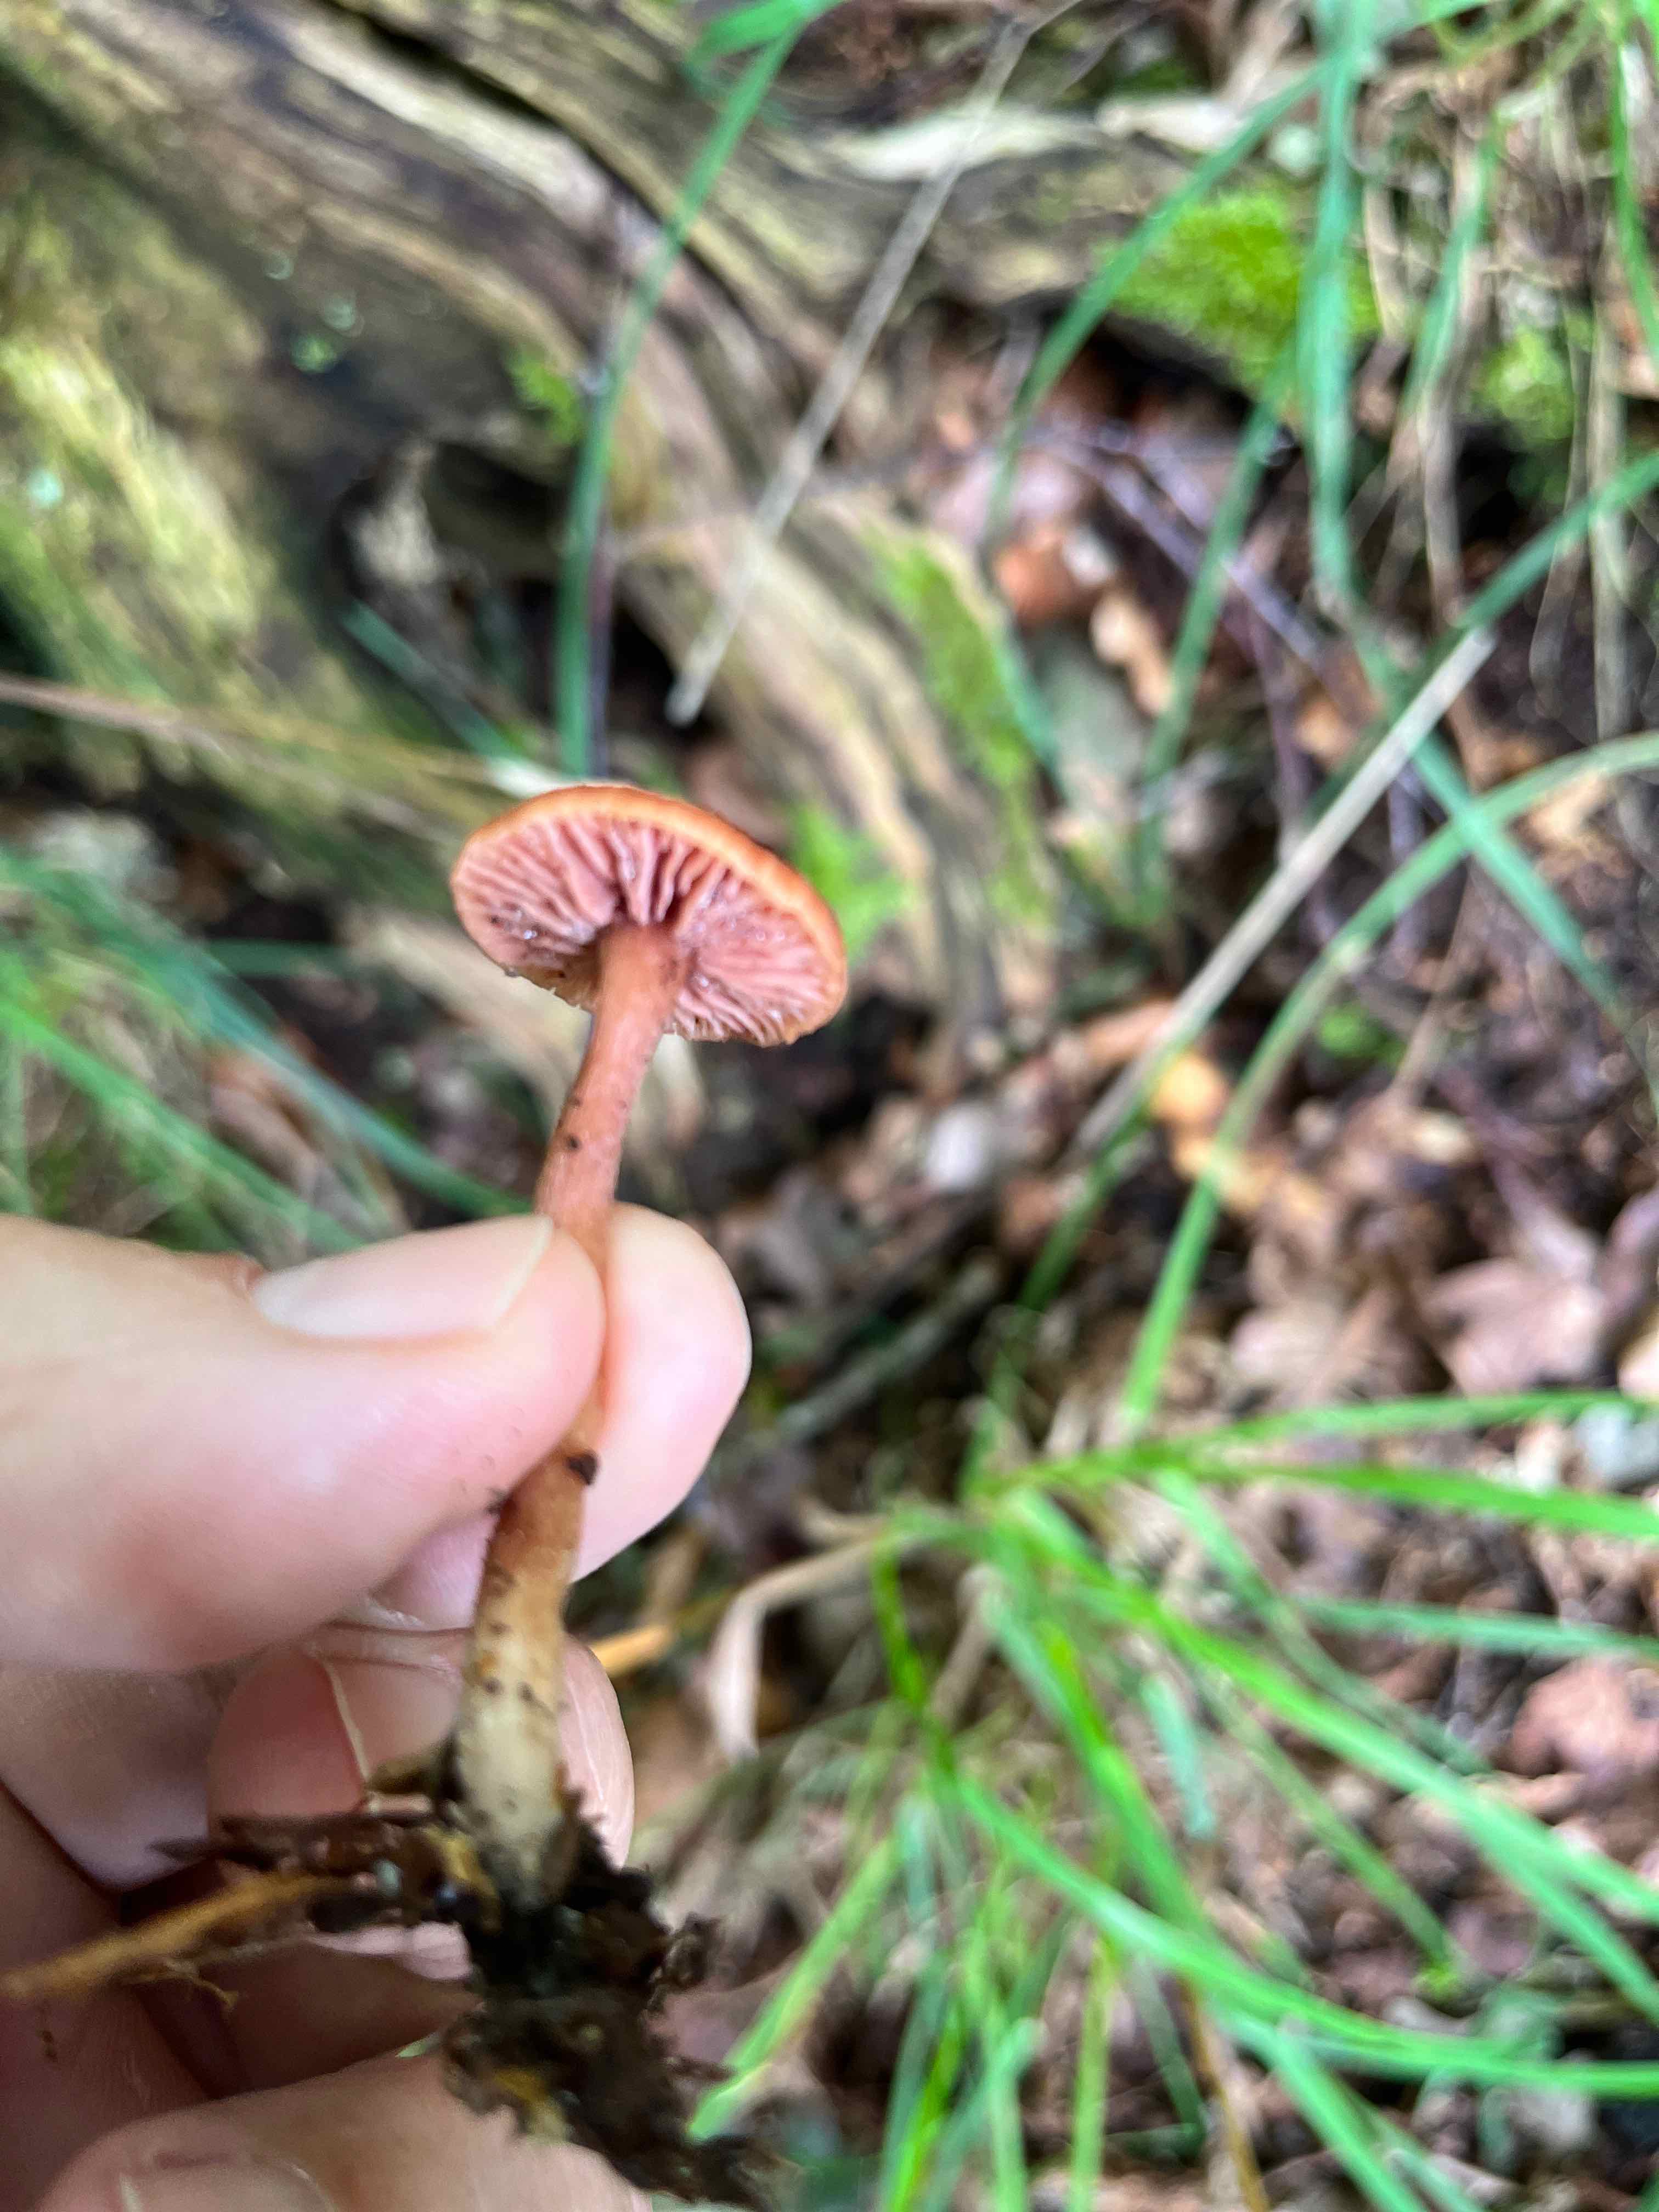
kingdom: Fungi
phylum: Basidiomycota
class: Agaricomycetes
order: Agaricales
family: Hydnangiaceae
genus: Laccaria
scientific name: Laccaria laccata
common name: rød ametysthat
